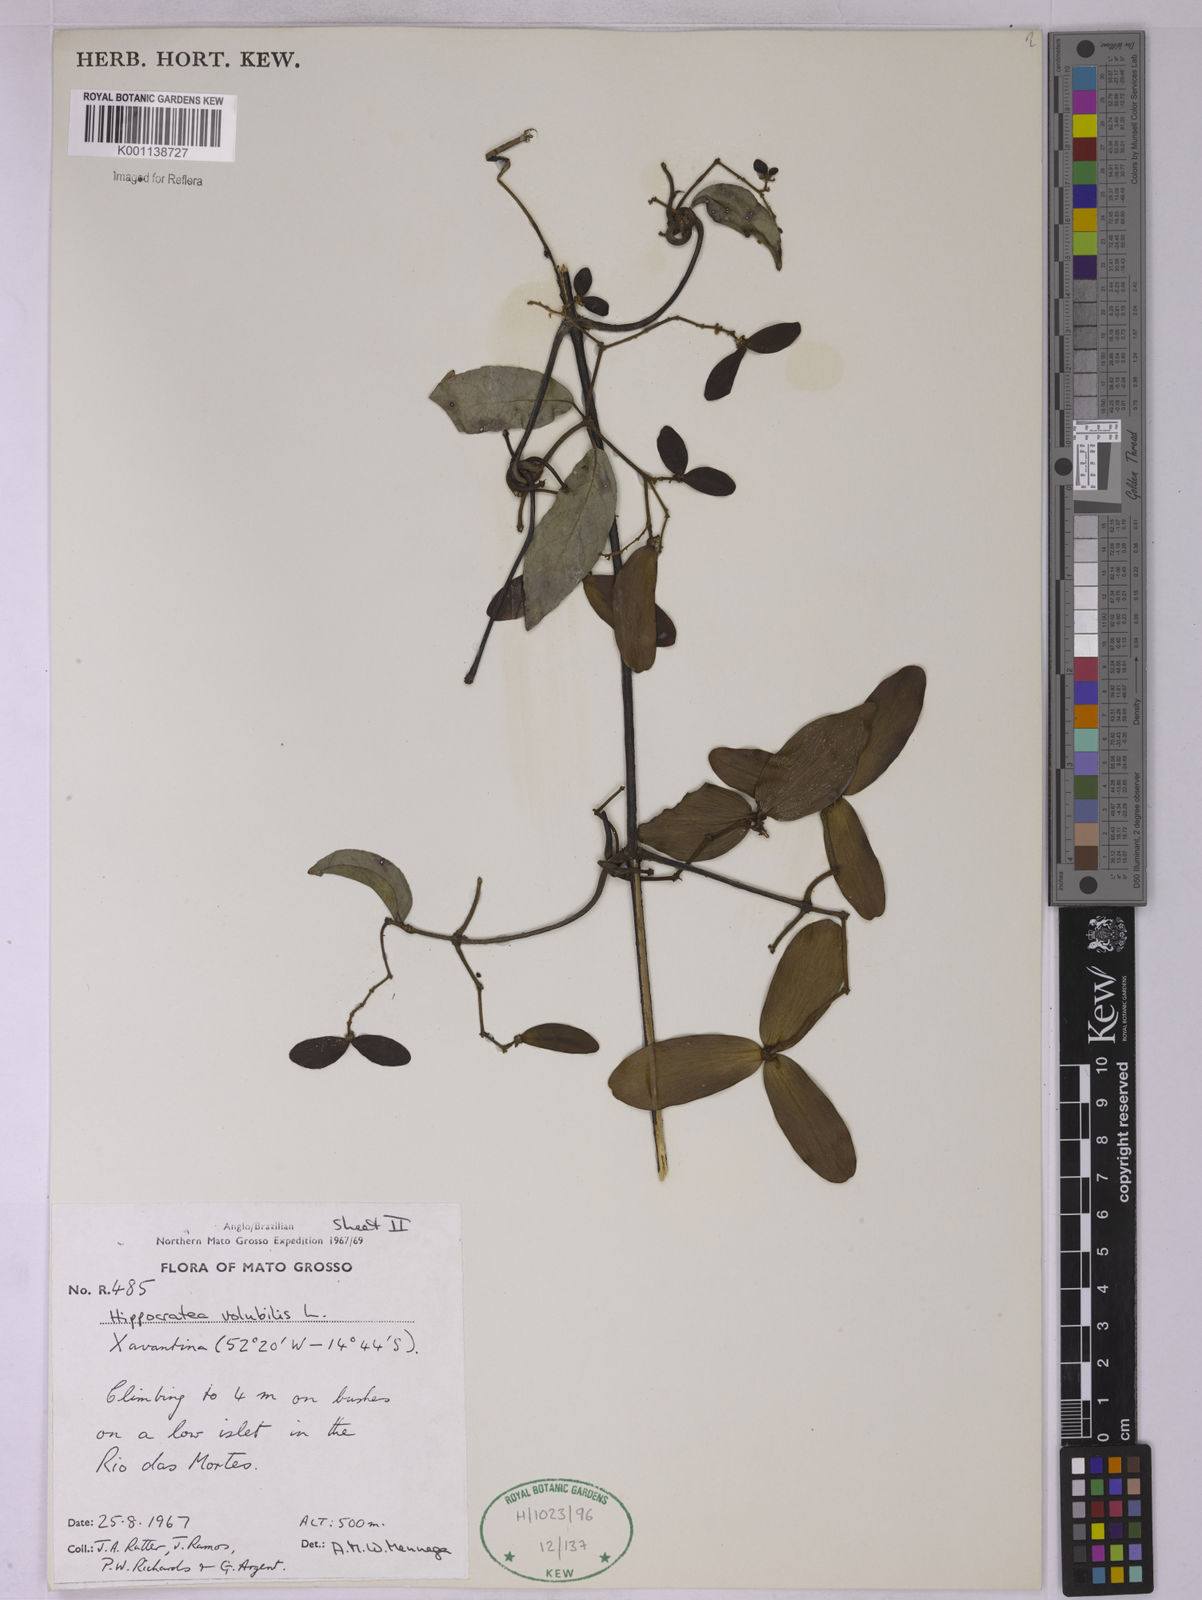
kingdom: Plantae
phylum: Tracheophyta
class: Magnoliopsida
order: Celastrales
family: Celastraceae
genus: Hippocratea
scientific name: Hippocratea volubilis
